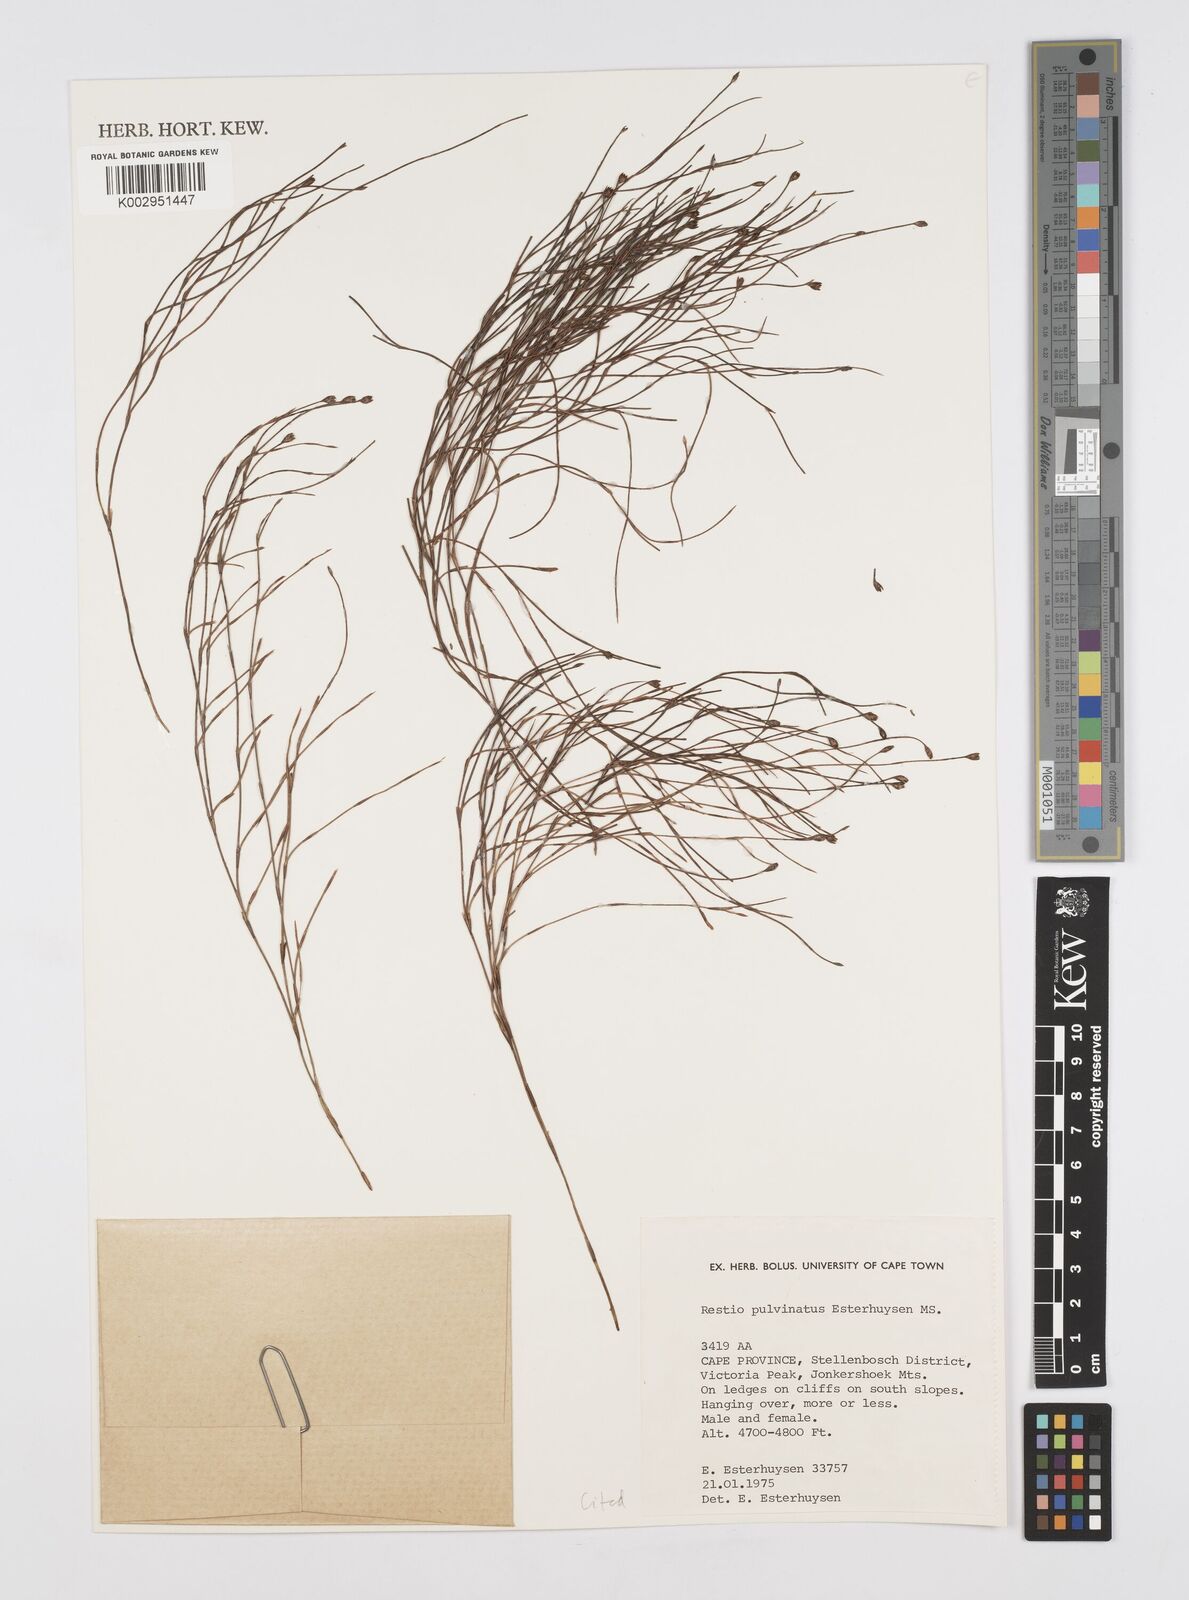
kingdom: Plantae
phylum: Tracheophyta
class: Liliopsida
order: Poales
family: Restionaceae
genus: Restio
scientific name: Restio pulvinatus
